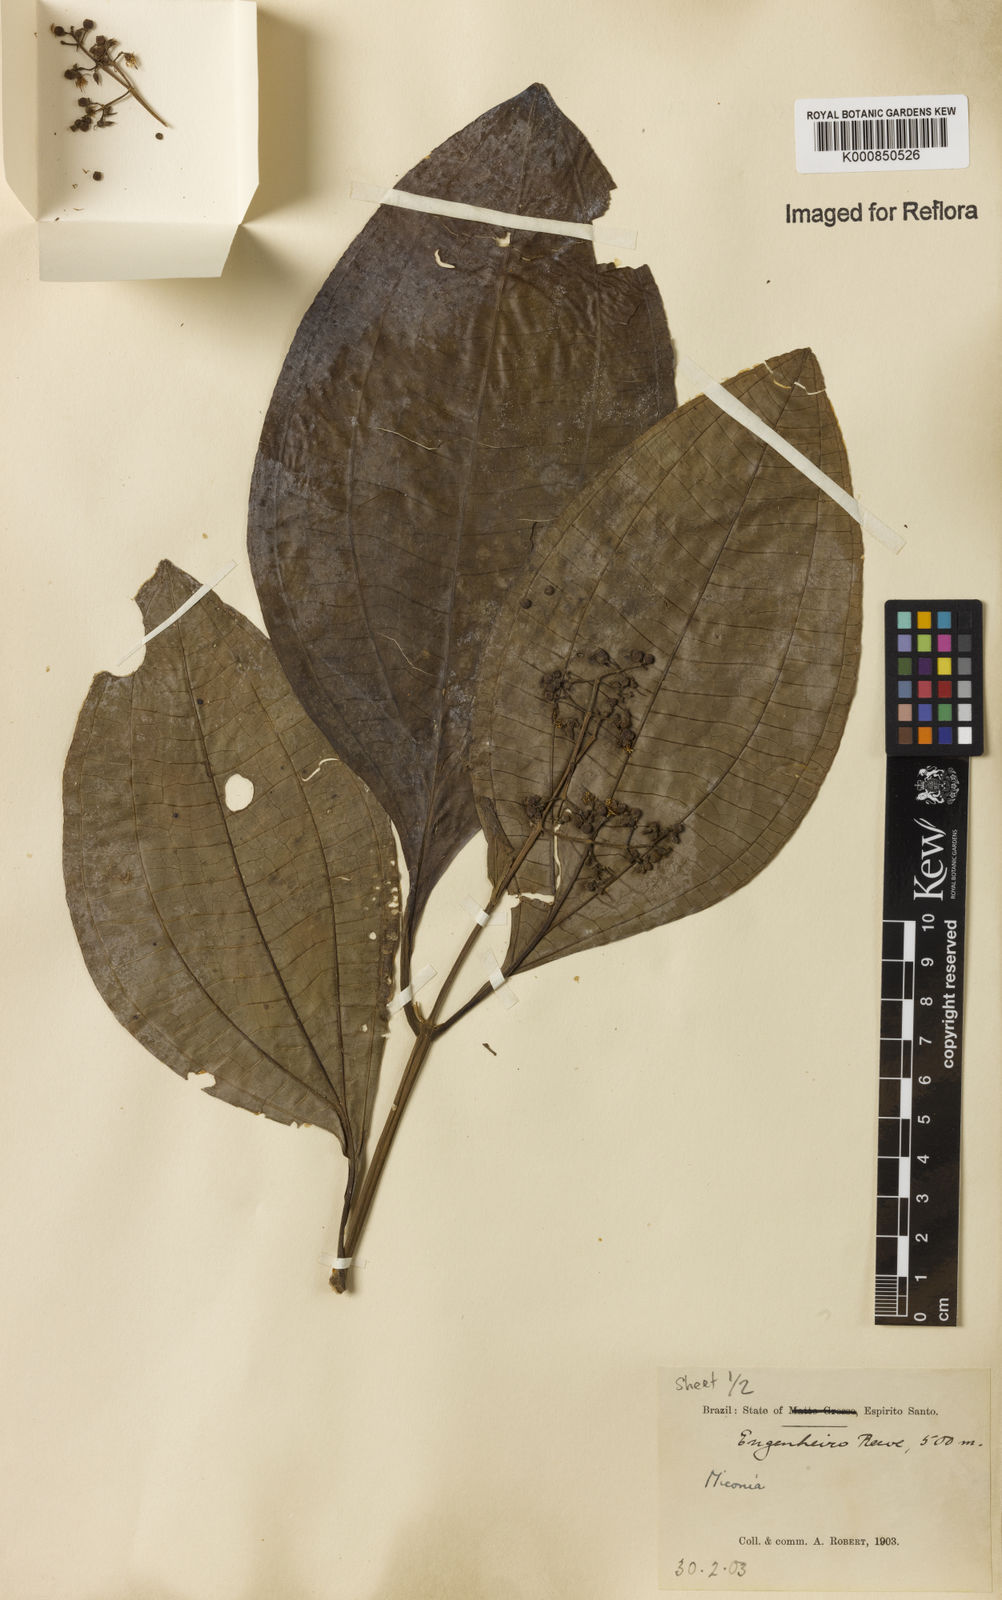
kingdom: Plantae
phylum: Tracheophyta
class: Magnoliopsida
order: Myrtales
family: Melastomataceae
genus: Miconia
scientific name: Miconia
